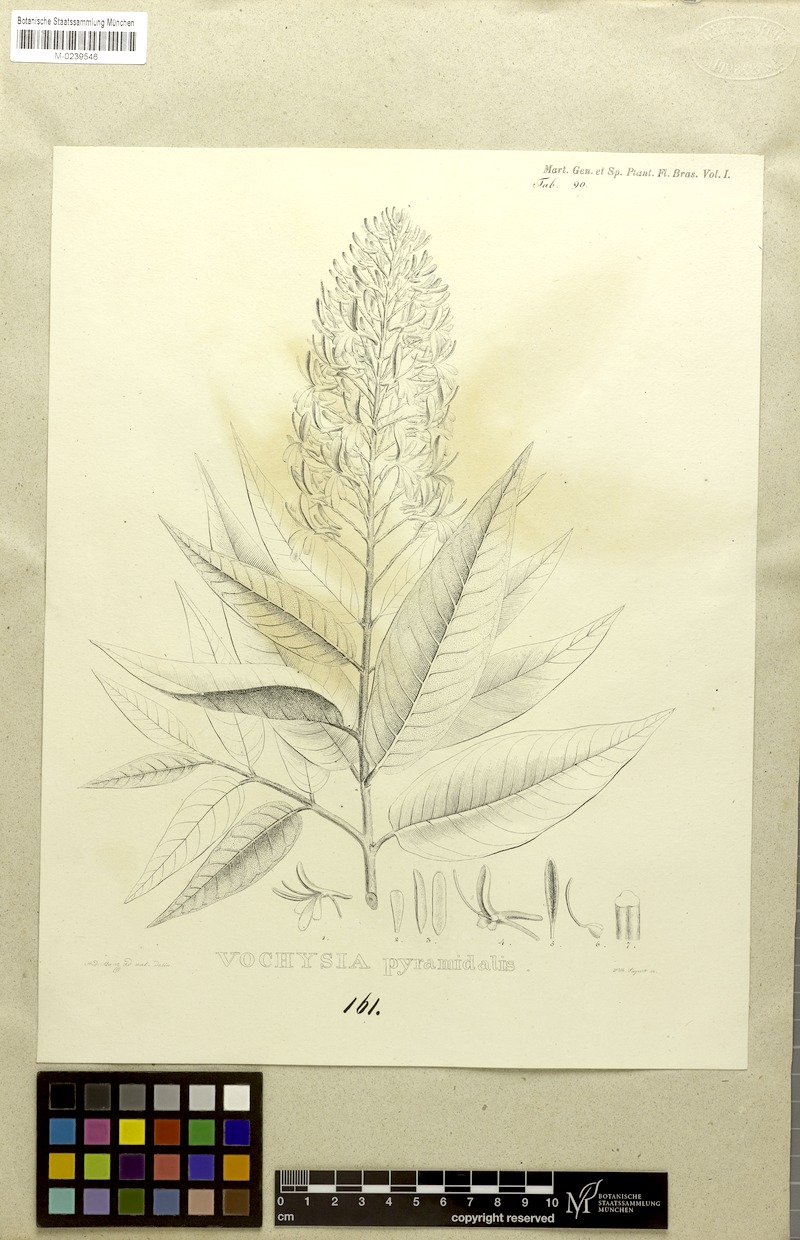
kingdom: Plantae
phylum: Tracheophyta
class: Magnoliopsida
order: Myrtales
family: Vochysiaceae
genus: Vochysia
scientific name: Vochysia pyramidalis
